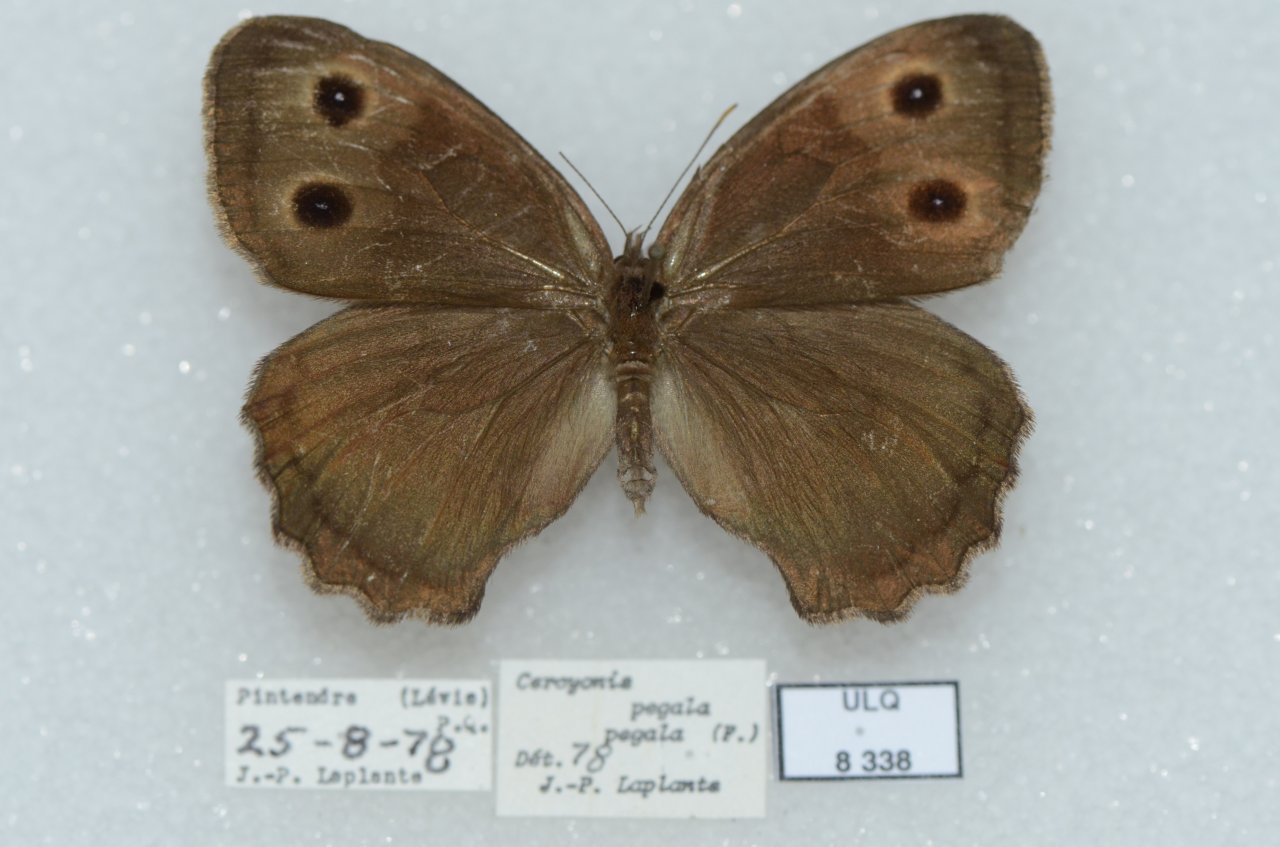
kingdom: Animalia
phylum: Arthropoda
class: Insecta
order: Lepidoptera
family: Nymphalidae
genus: Cercyonis
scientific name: Cercyonis pegala
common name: Common Wood-Nymph
